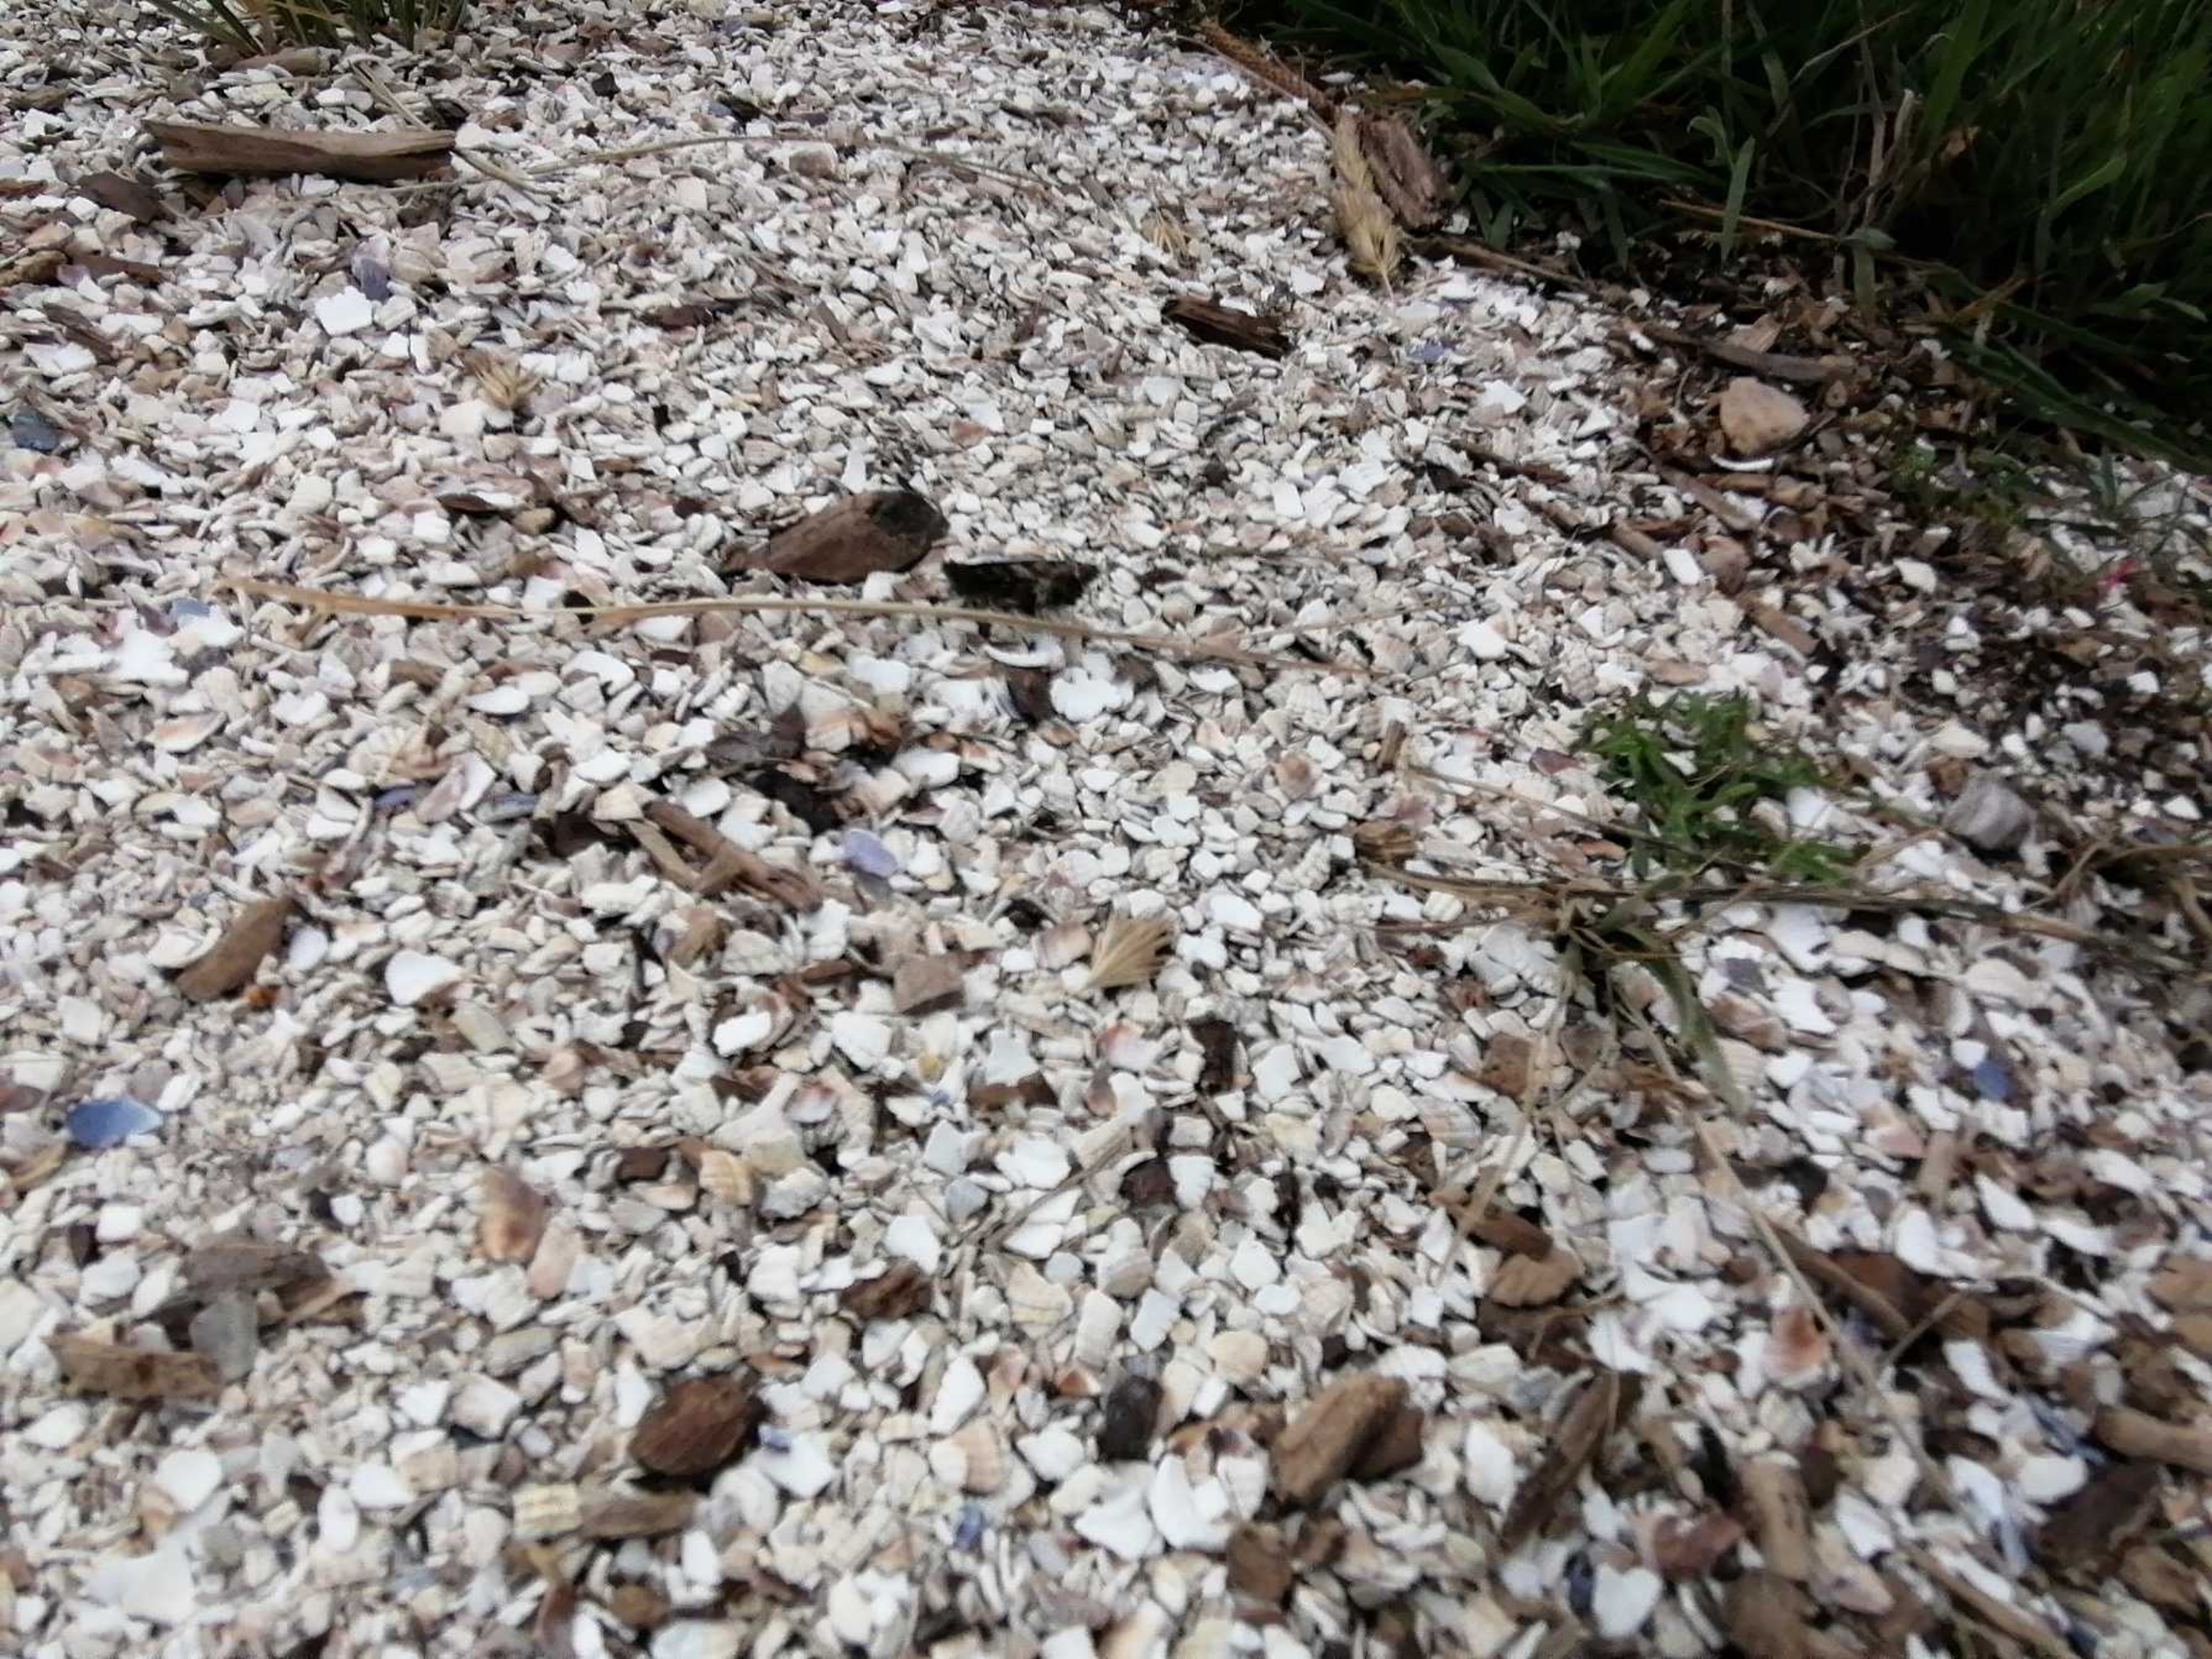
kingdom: Animalia
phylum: Arthropoda
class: Insecta
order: Lepidoptera
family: Nymphalidae
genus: Hipparchia
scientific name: Hipparchia semele
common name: Sandrandøje
